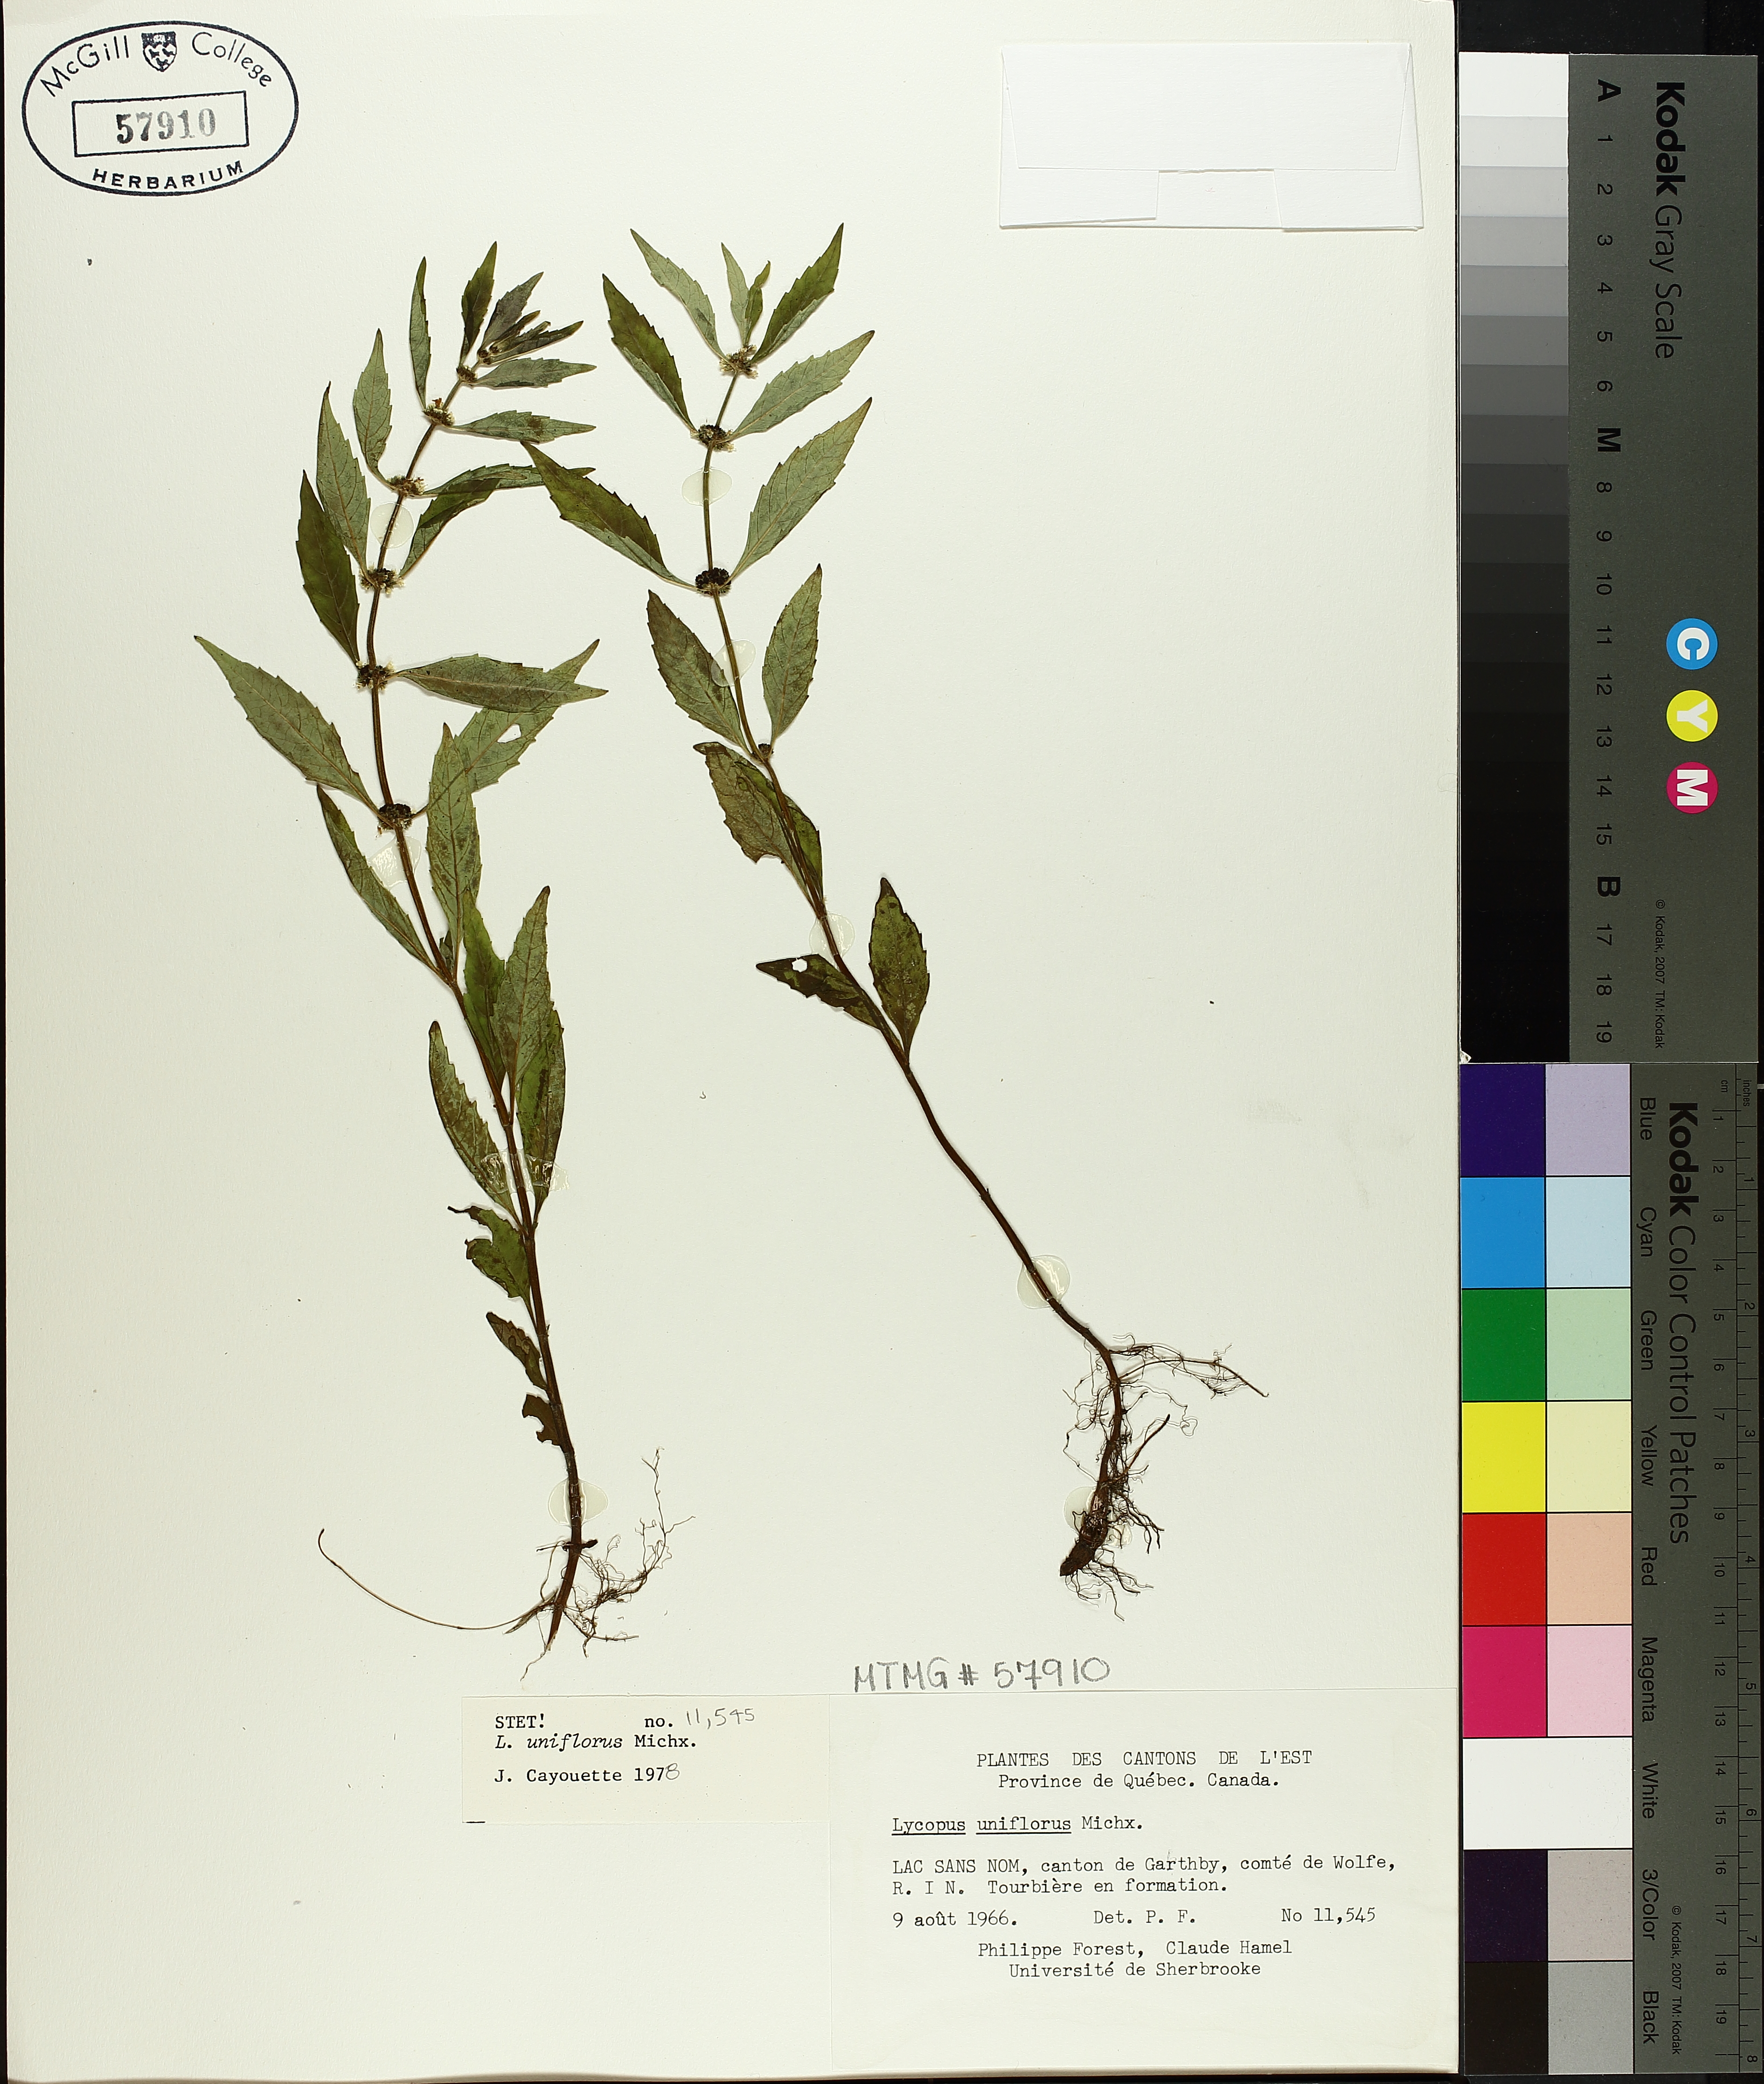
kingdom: Plantae
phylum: Tracheophyta
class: Magnoliopsida
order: Lamiales
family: Lamiaceae
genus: Lycopus
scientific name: Lycopus uniflorus
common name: Northern bugleweed
